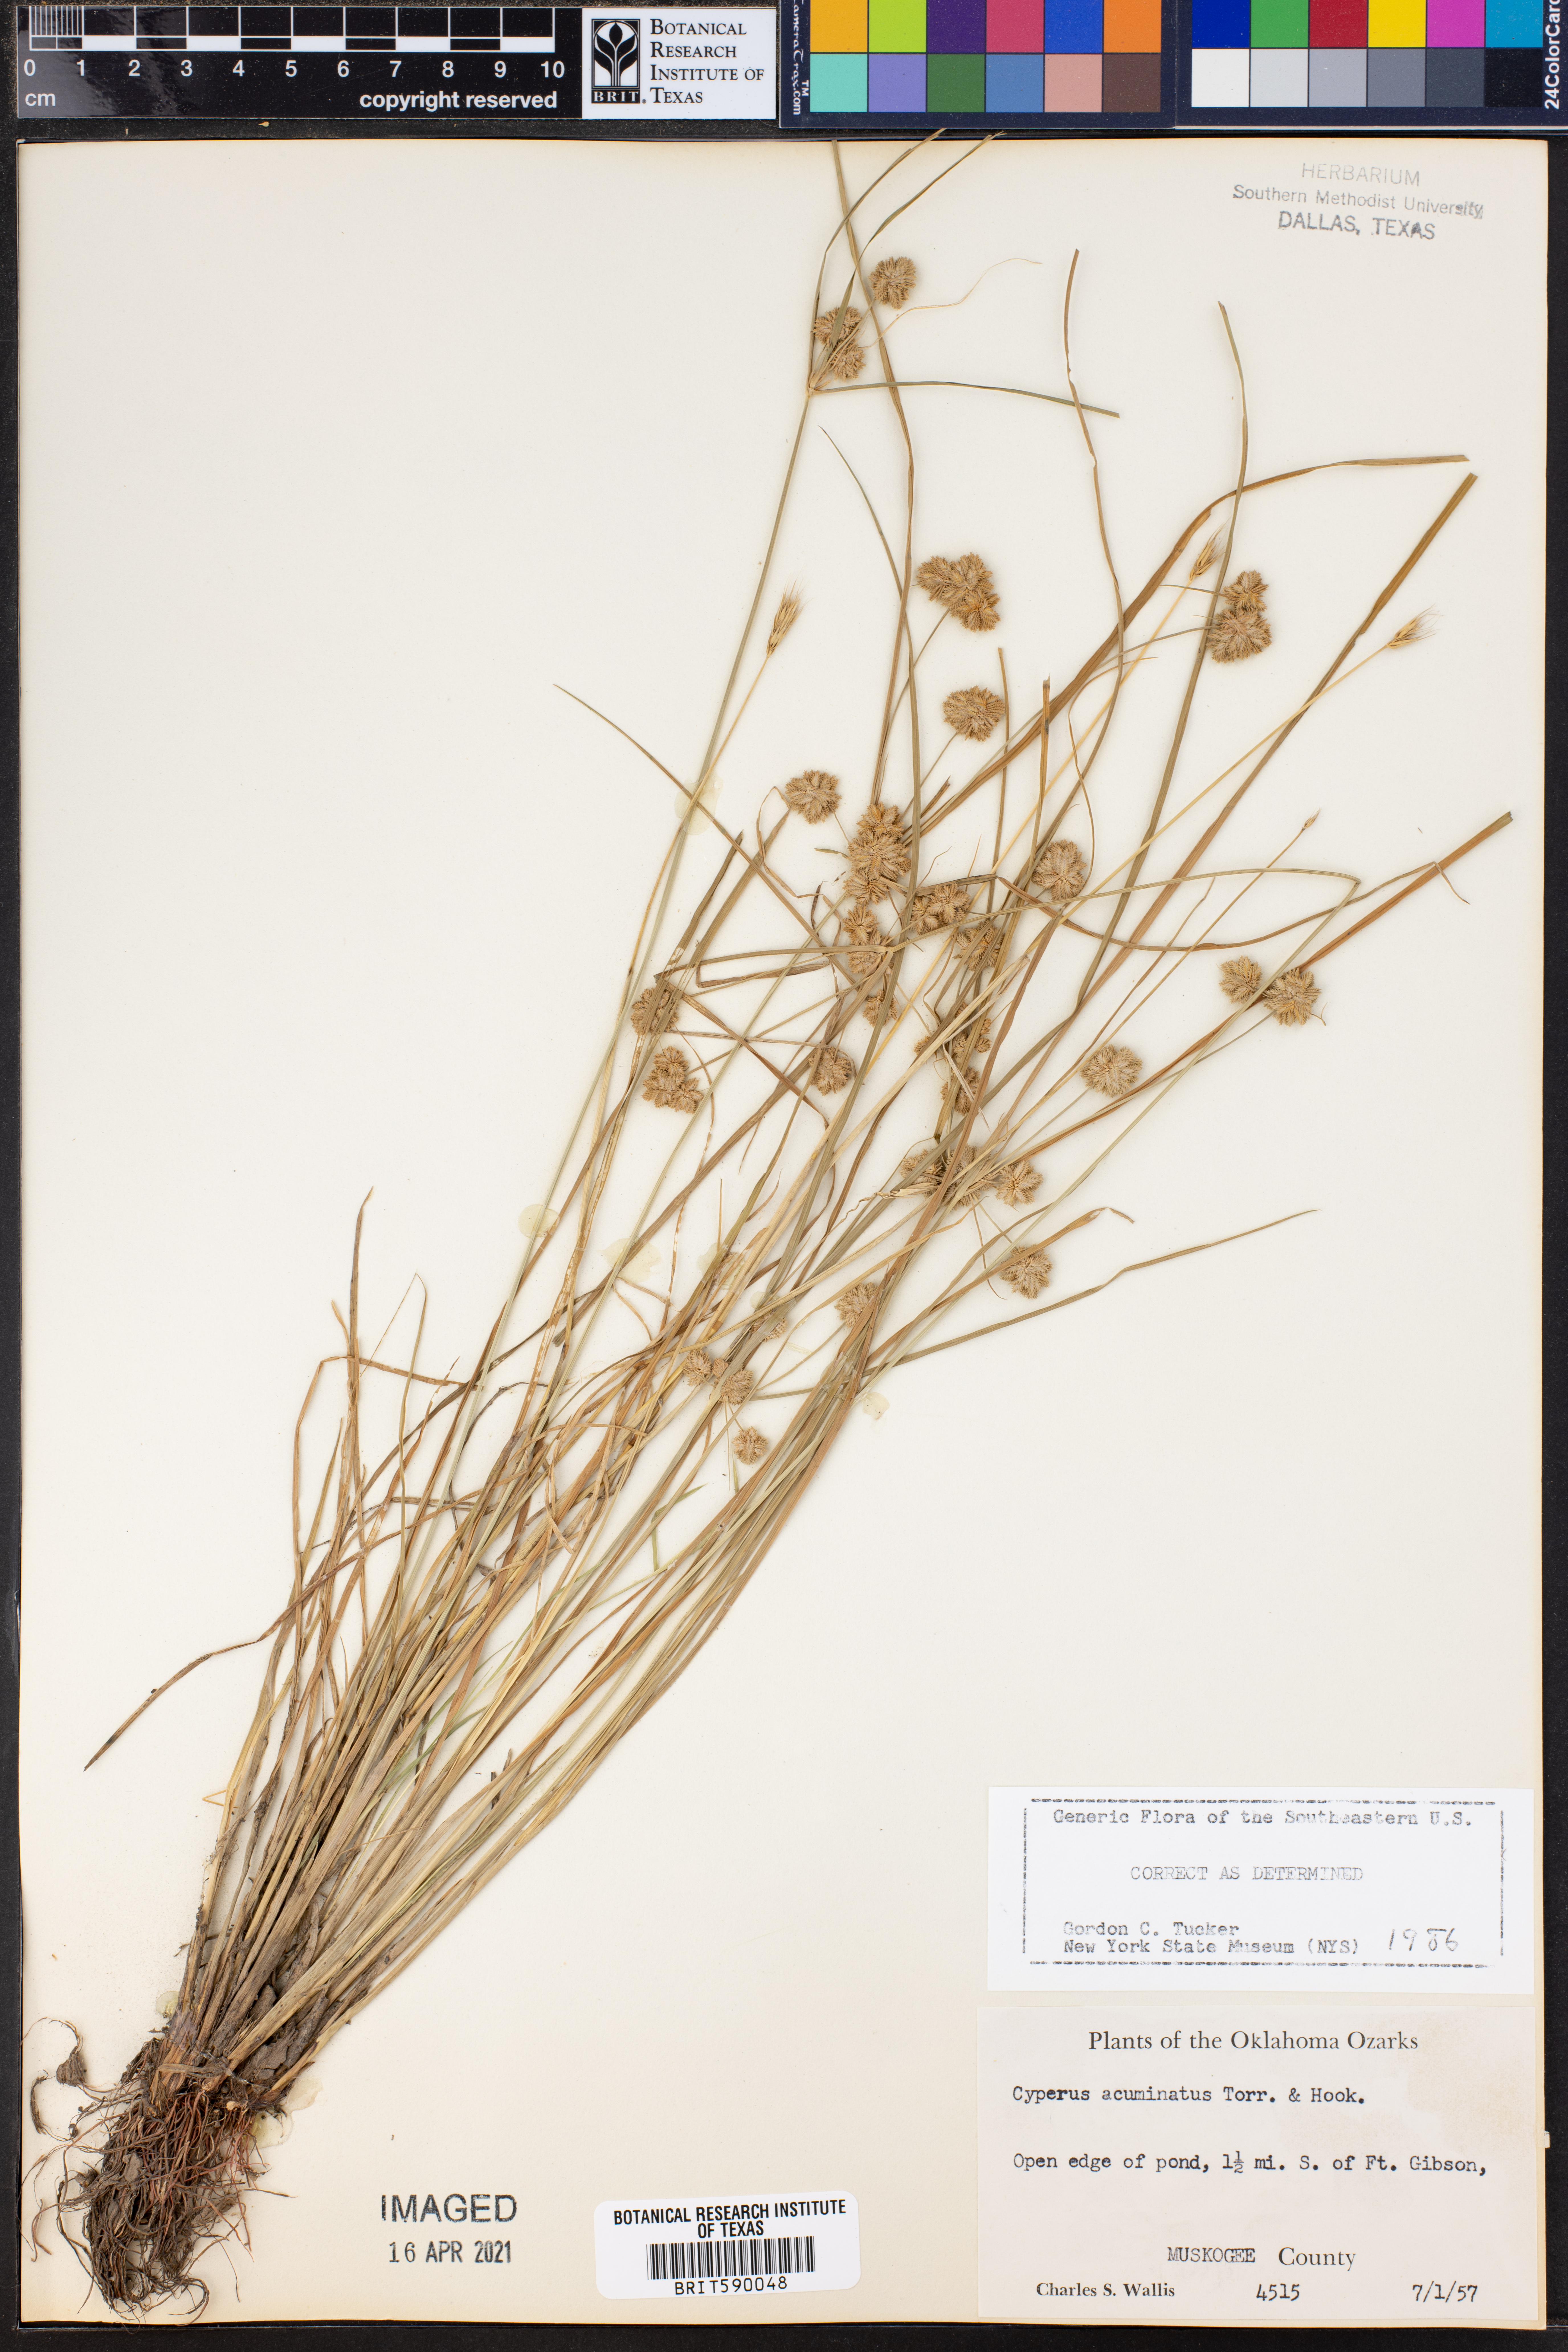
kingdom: Plantae
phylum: Tracheophyta
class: Liliopsida
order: Poales
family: Cyperaceae
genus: Cyperus
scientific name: Cyperus acuminatus
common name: Short-pointed cyperus
